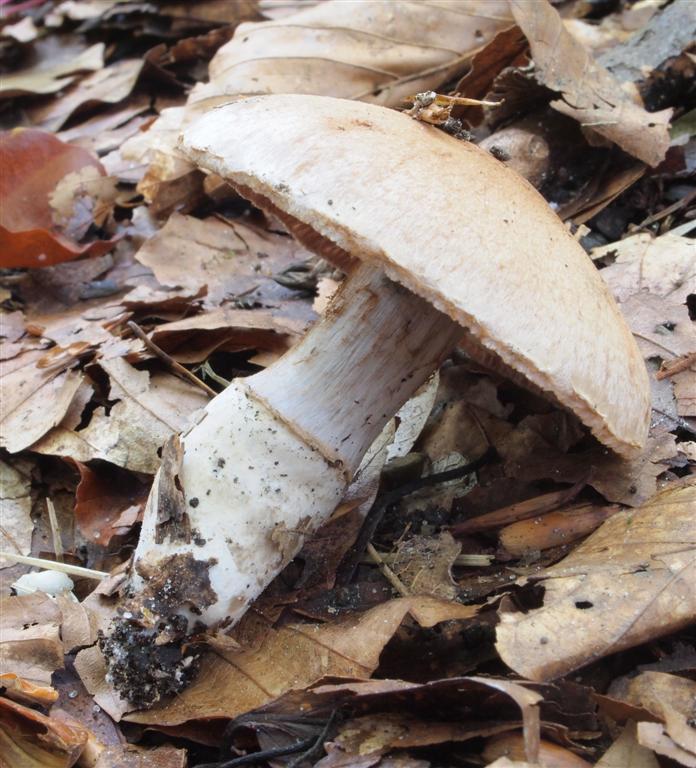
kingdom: Fungi
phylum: Basidiomycota
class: Agaricomycetes
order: Agaricales
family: Cortinariaceae
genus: Cortinarius
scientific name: Cortinarius torvus
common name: champignonagtig slørhat
